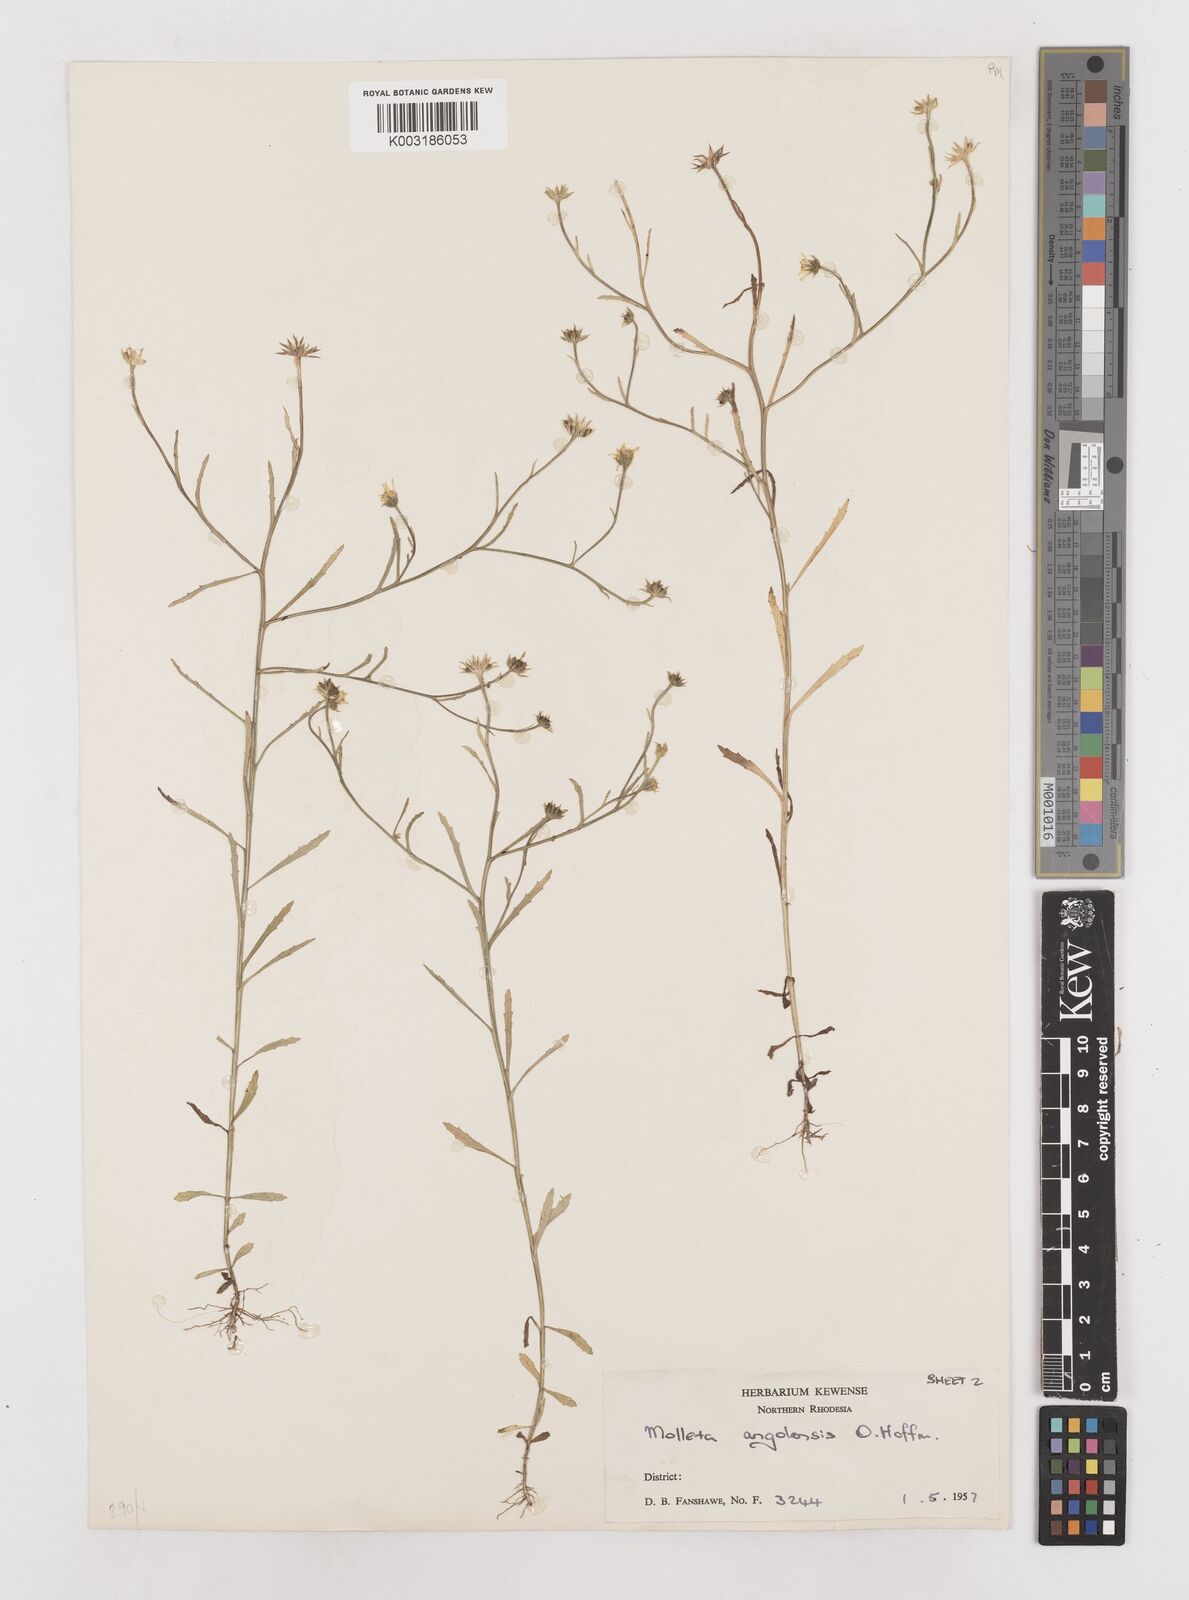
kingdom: Plantae
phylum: Tracheophyta
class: Magnoliopsida
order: Asterales
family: Asteraceae
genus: Calostephane
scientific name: Calostephane angolensis
